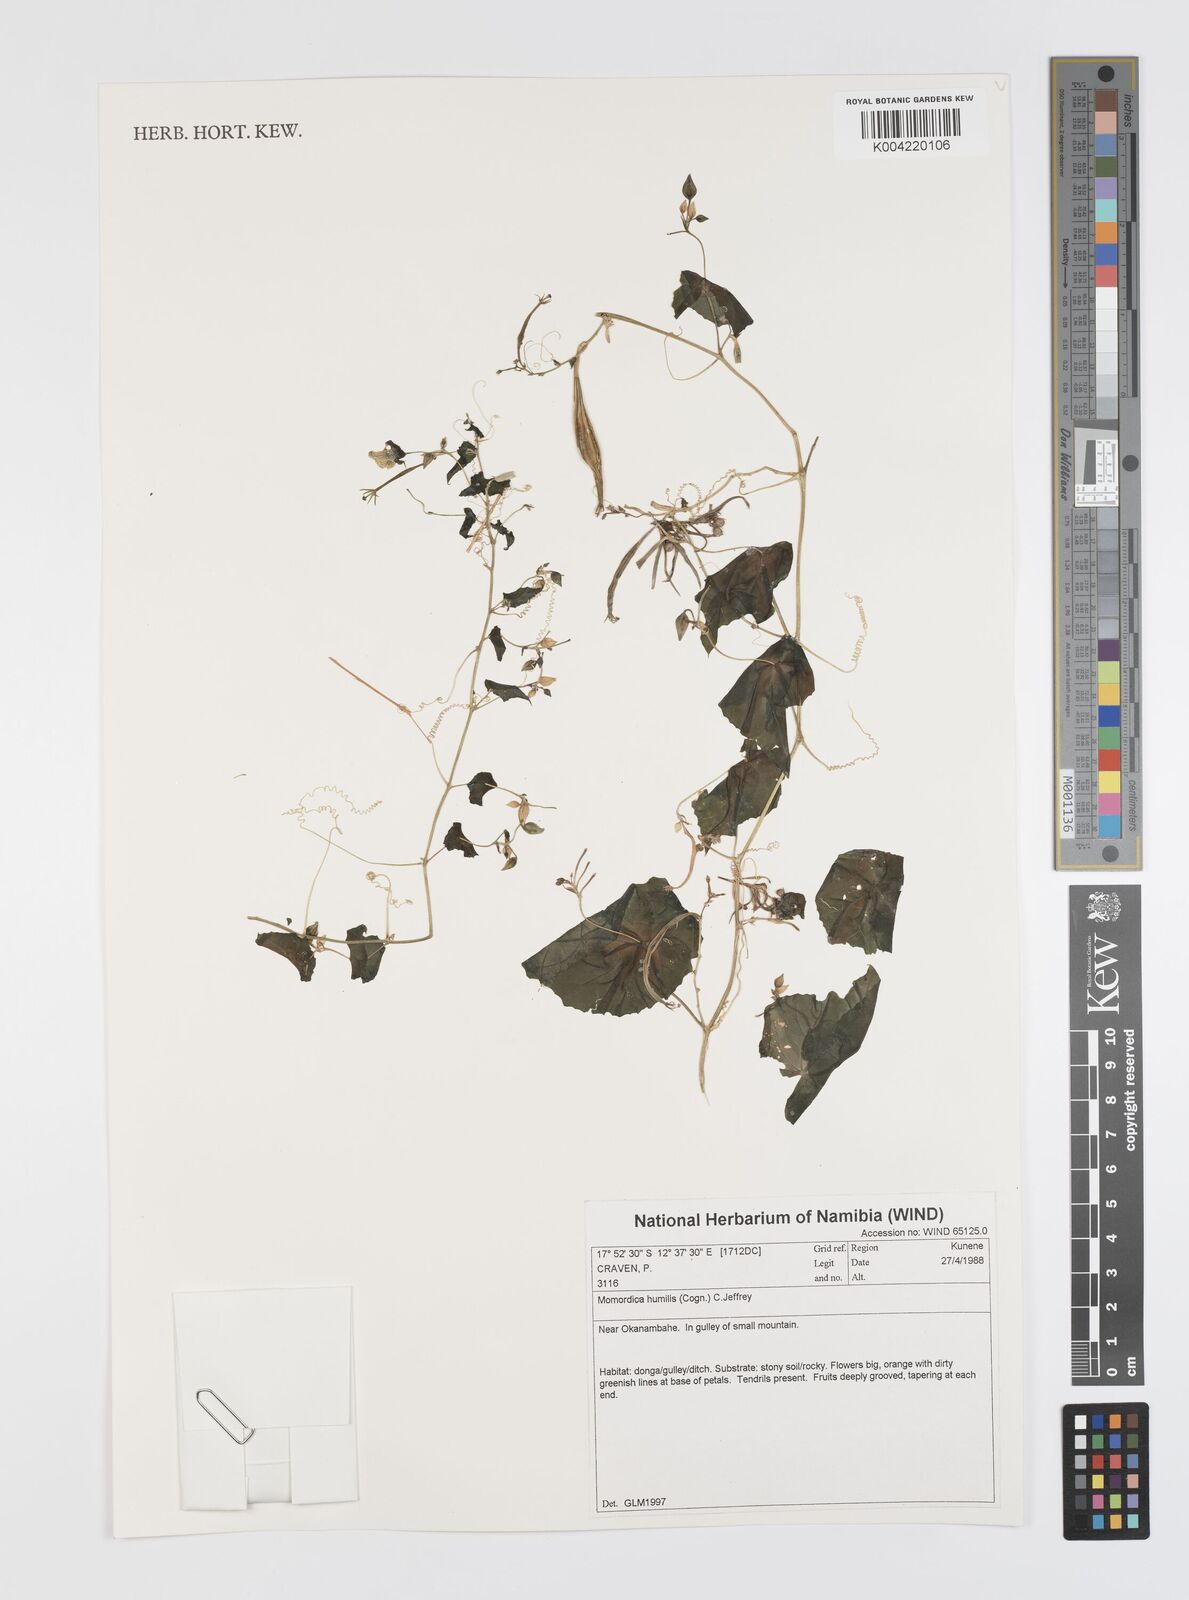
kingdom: Plantae
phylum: Tracheophyta
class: Magnoliopsida
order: Cucurbitales
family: Cucurbitaceae
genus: Momordica
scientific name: Momordica
